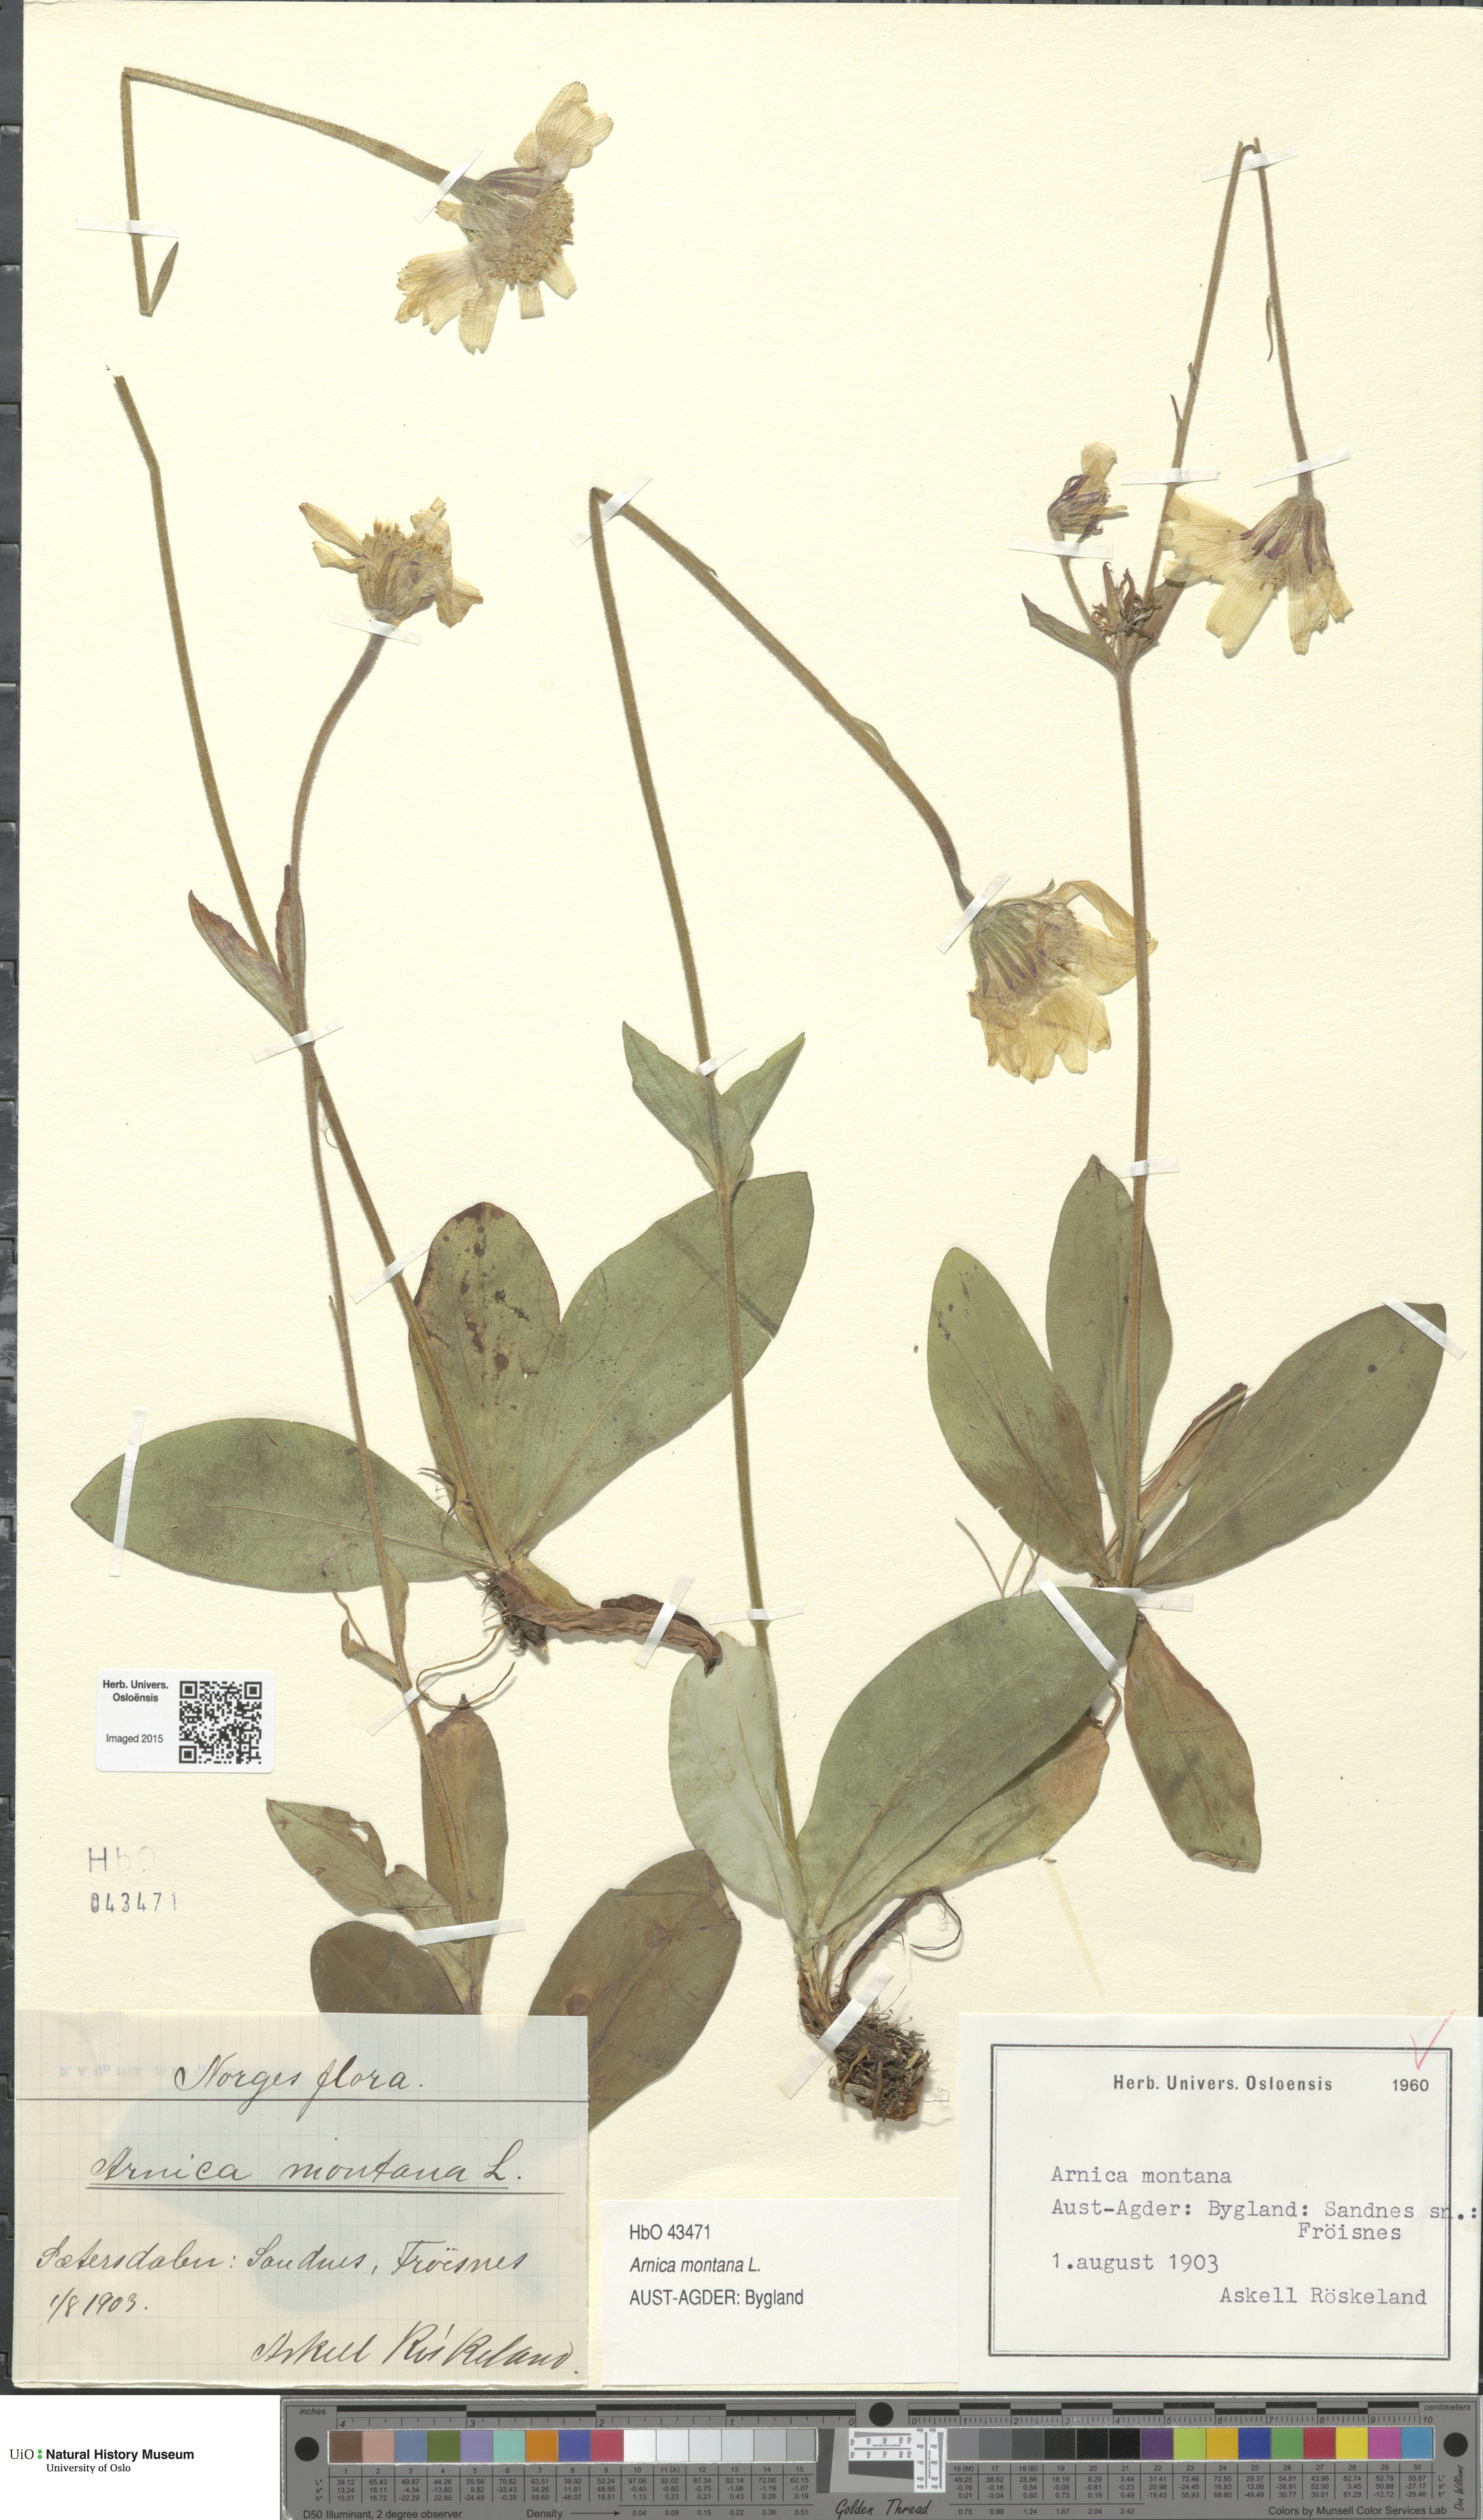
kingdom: Plantae
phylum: Tracheophyta
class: Magnoliopsida
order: Asterales
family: Asteraceae
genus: Arnica
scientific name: Arnica montana
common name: Leopard's bane
